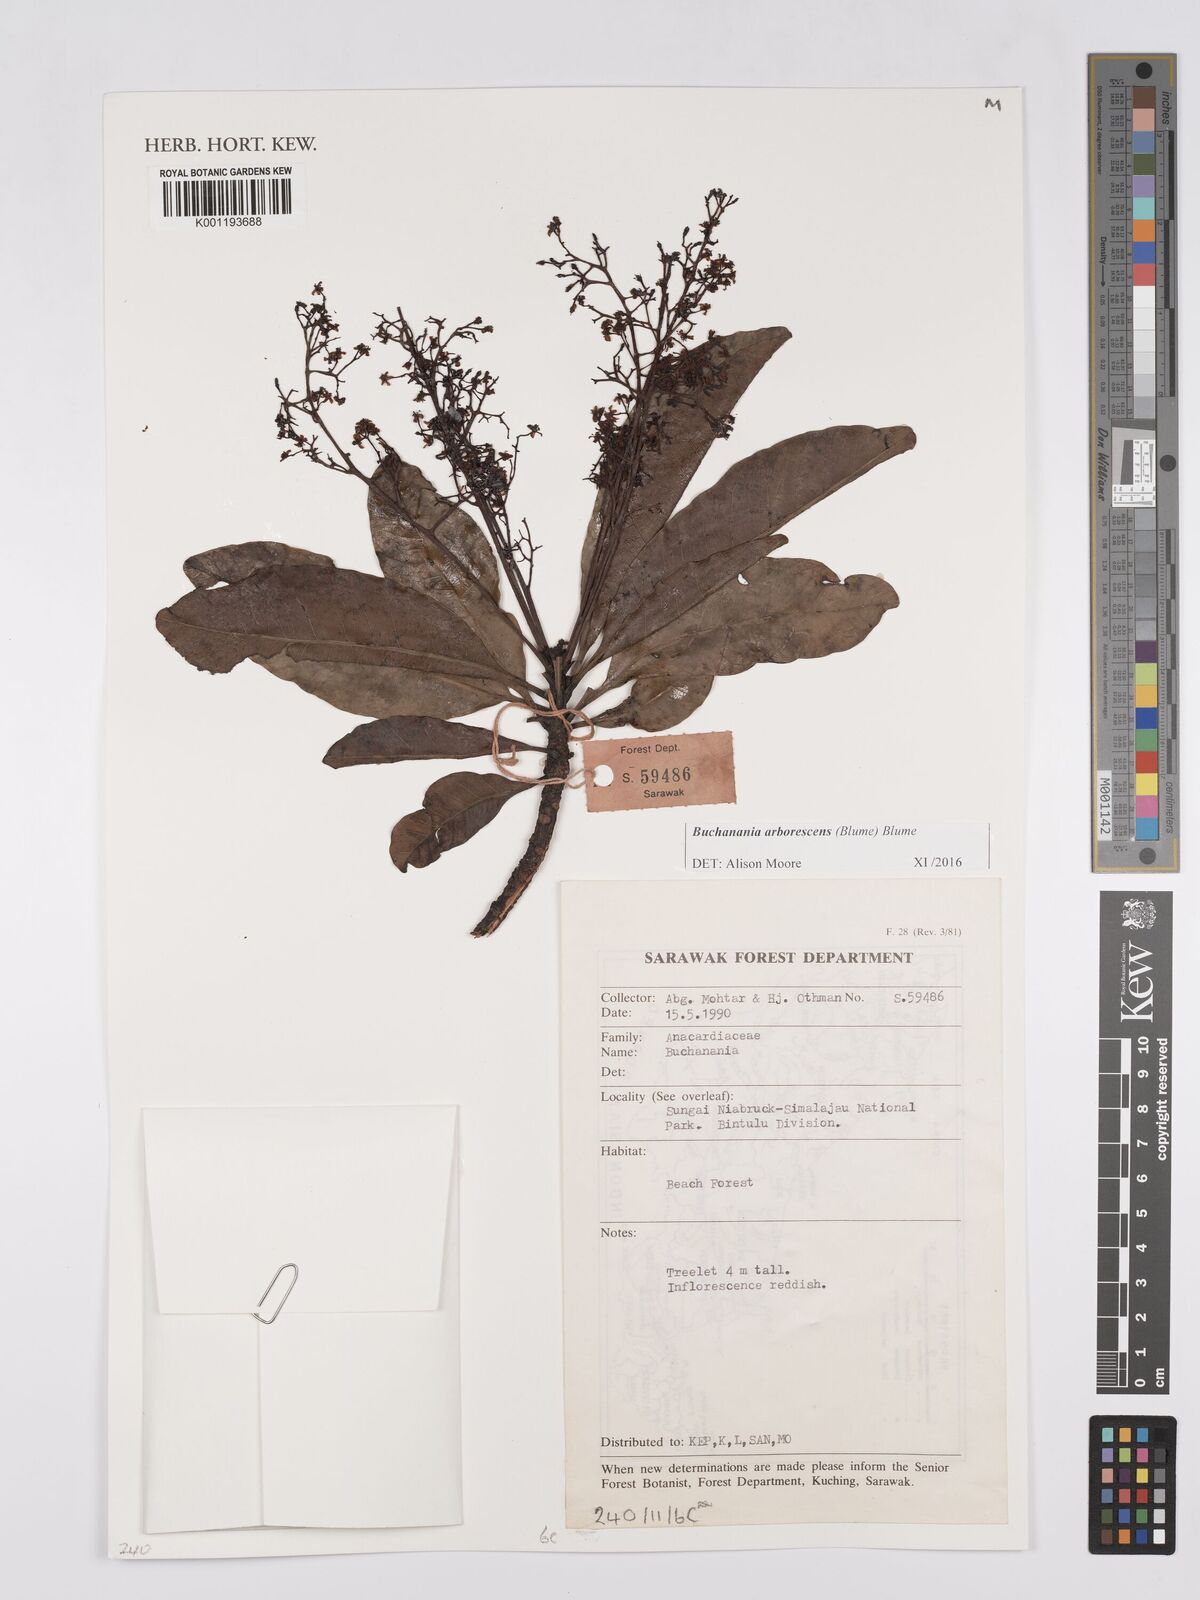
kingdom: Plantae
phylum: Tracheophyta
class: Magnoliopsida
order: Sapindales
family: Anacardiaceae
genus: Buchanania
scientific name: Buchanania arborescens
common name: Sparrow’s mango
